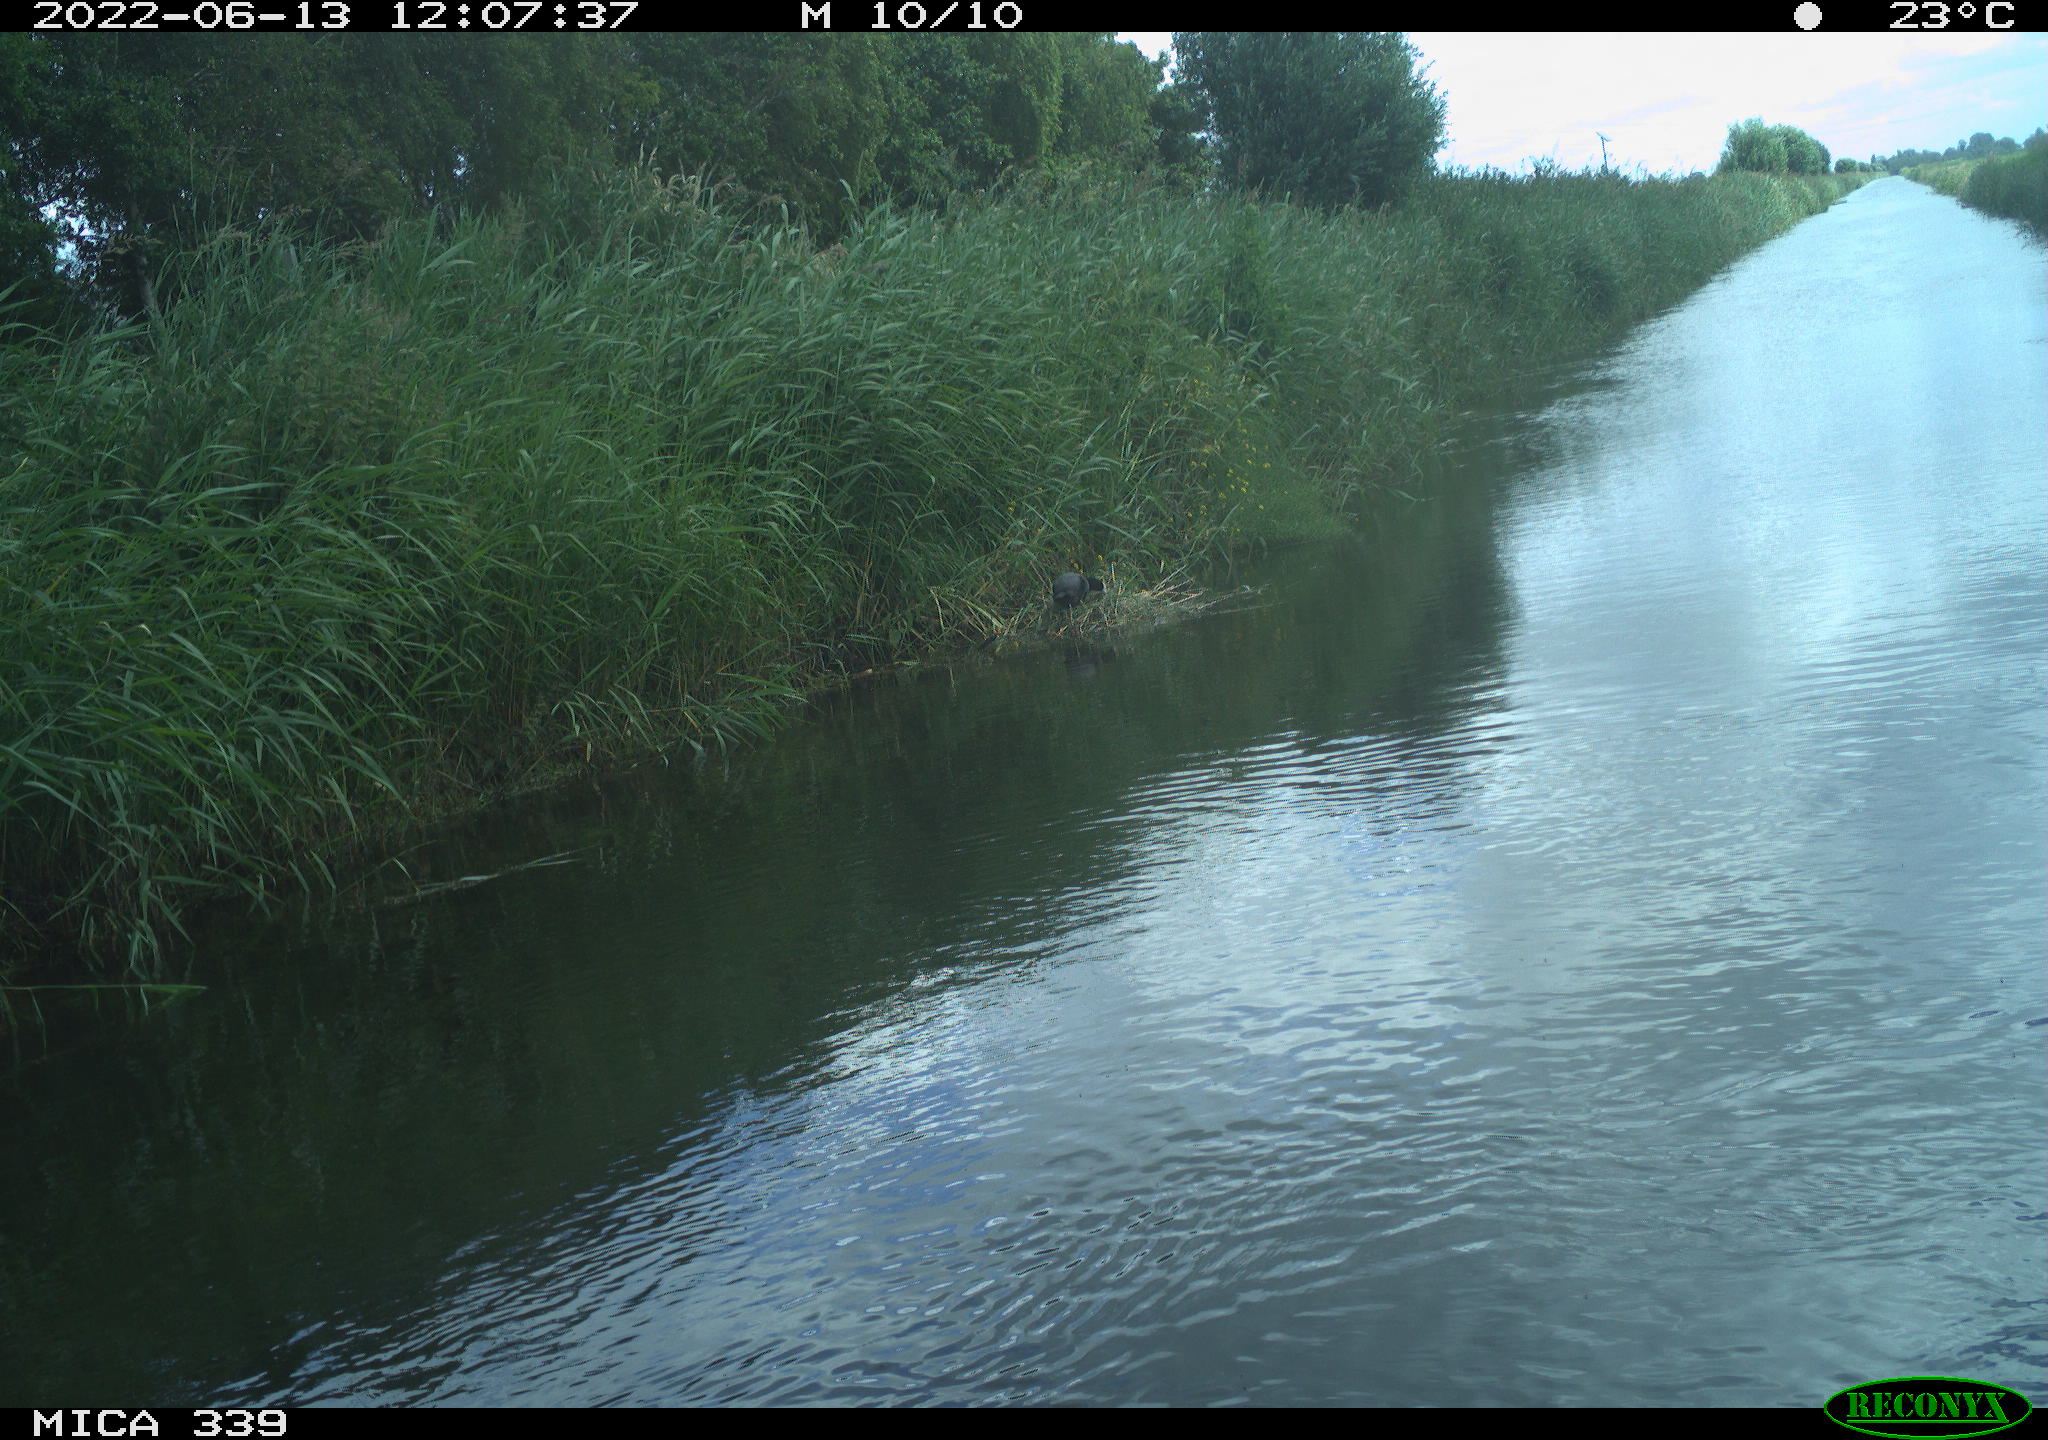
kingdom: Animalia
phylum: Chordata
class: Aves
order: Gruiformes
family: Rallidae
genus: Fulica
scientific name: Fulica atra
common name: Eurasian coot
